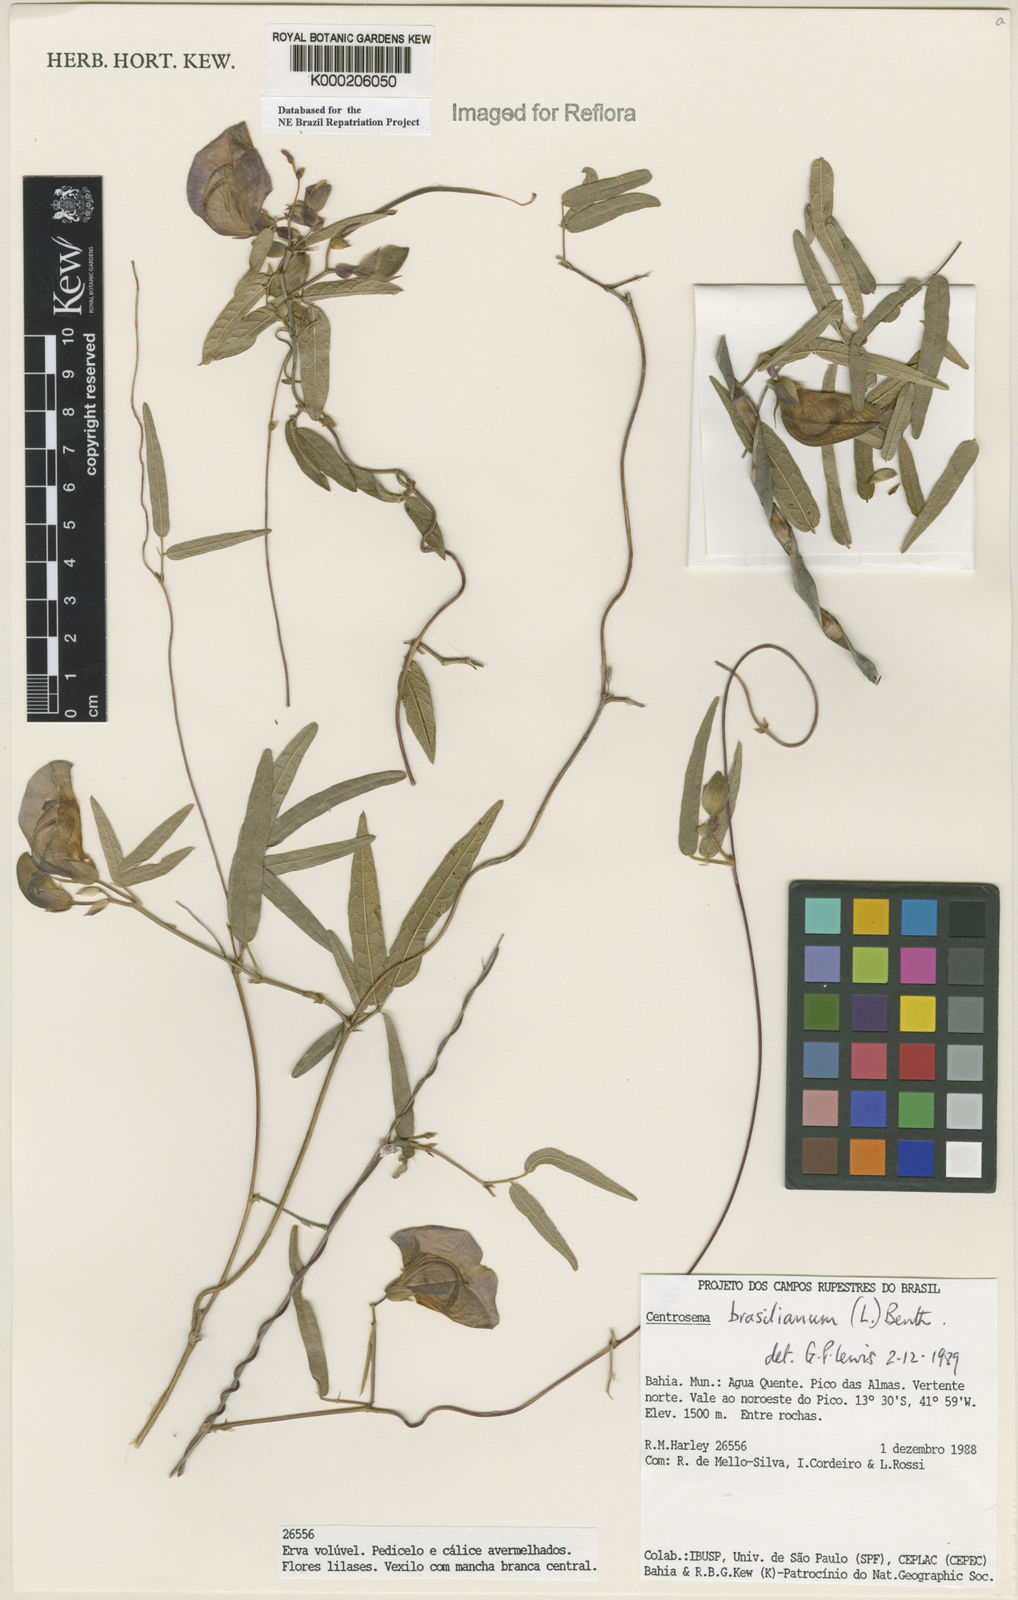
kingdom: Plantae
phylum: Tracheophyta
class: Magnoliopsida
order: Fabales
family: Fabaceae
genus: Centrosema
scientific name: Centrosema brasilianum
